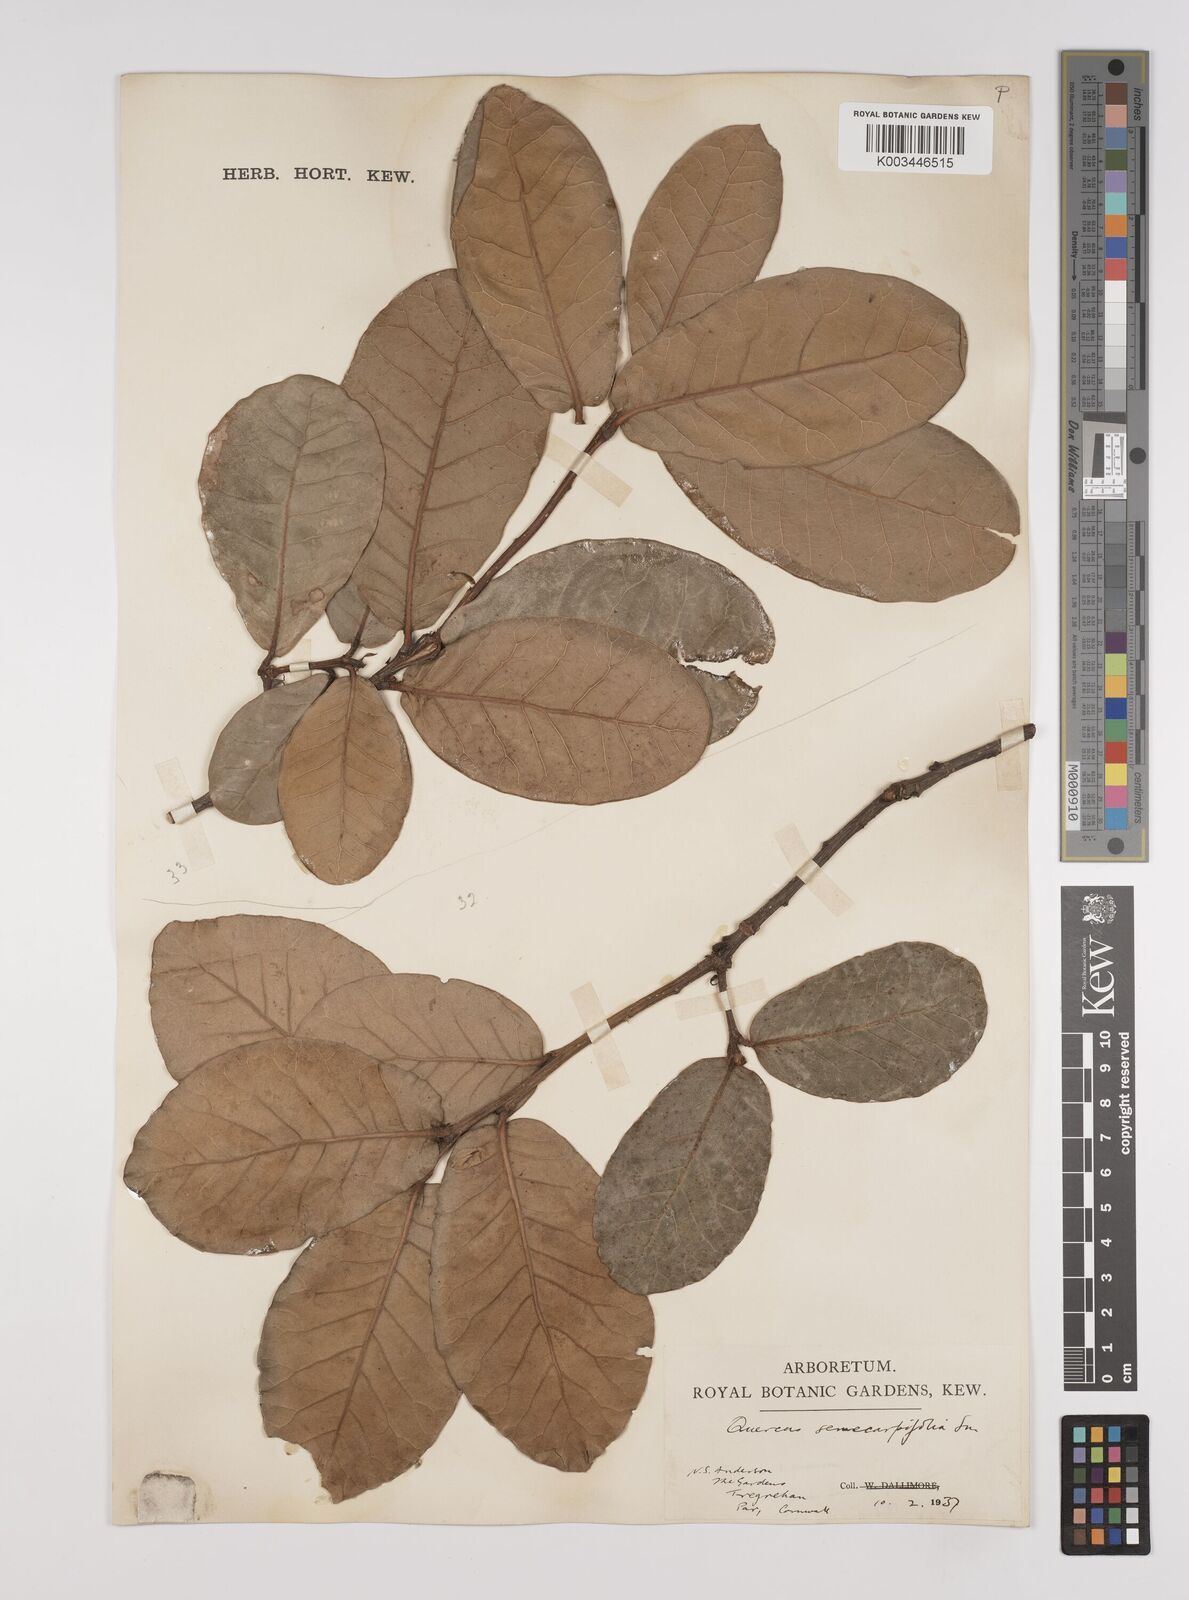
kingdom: Plantae
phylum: Tracheophyta
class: Magnoliopsida
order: Fagales
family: Fagaceae
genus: Quercus
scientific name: Quercus semecarpifolia
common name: Brown oak
